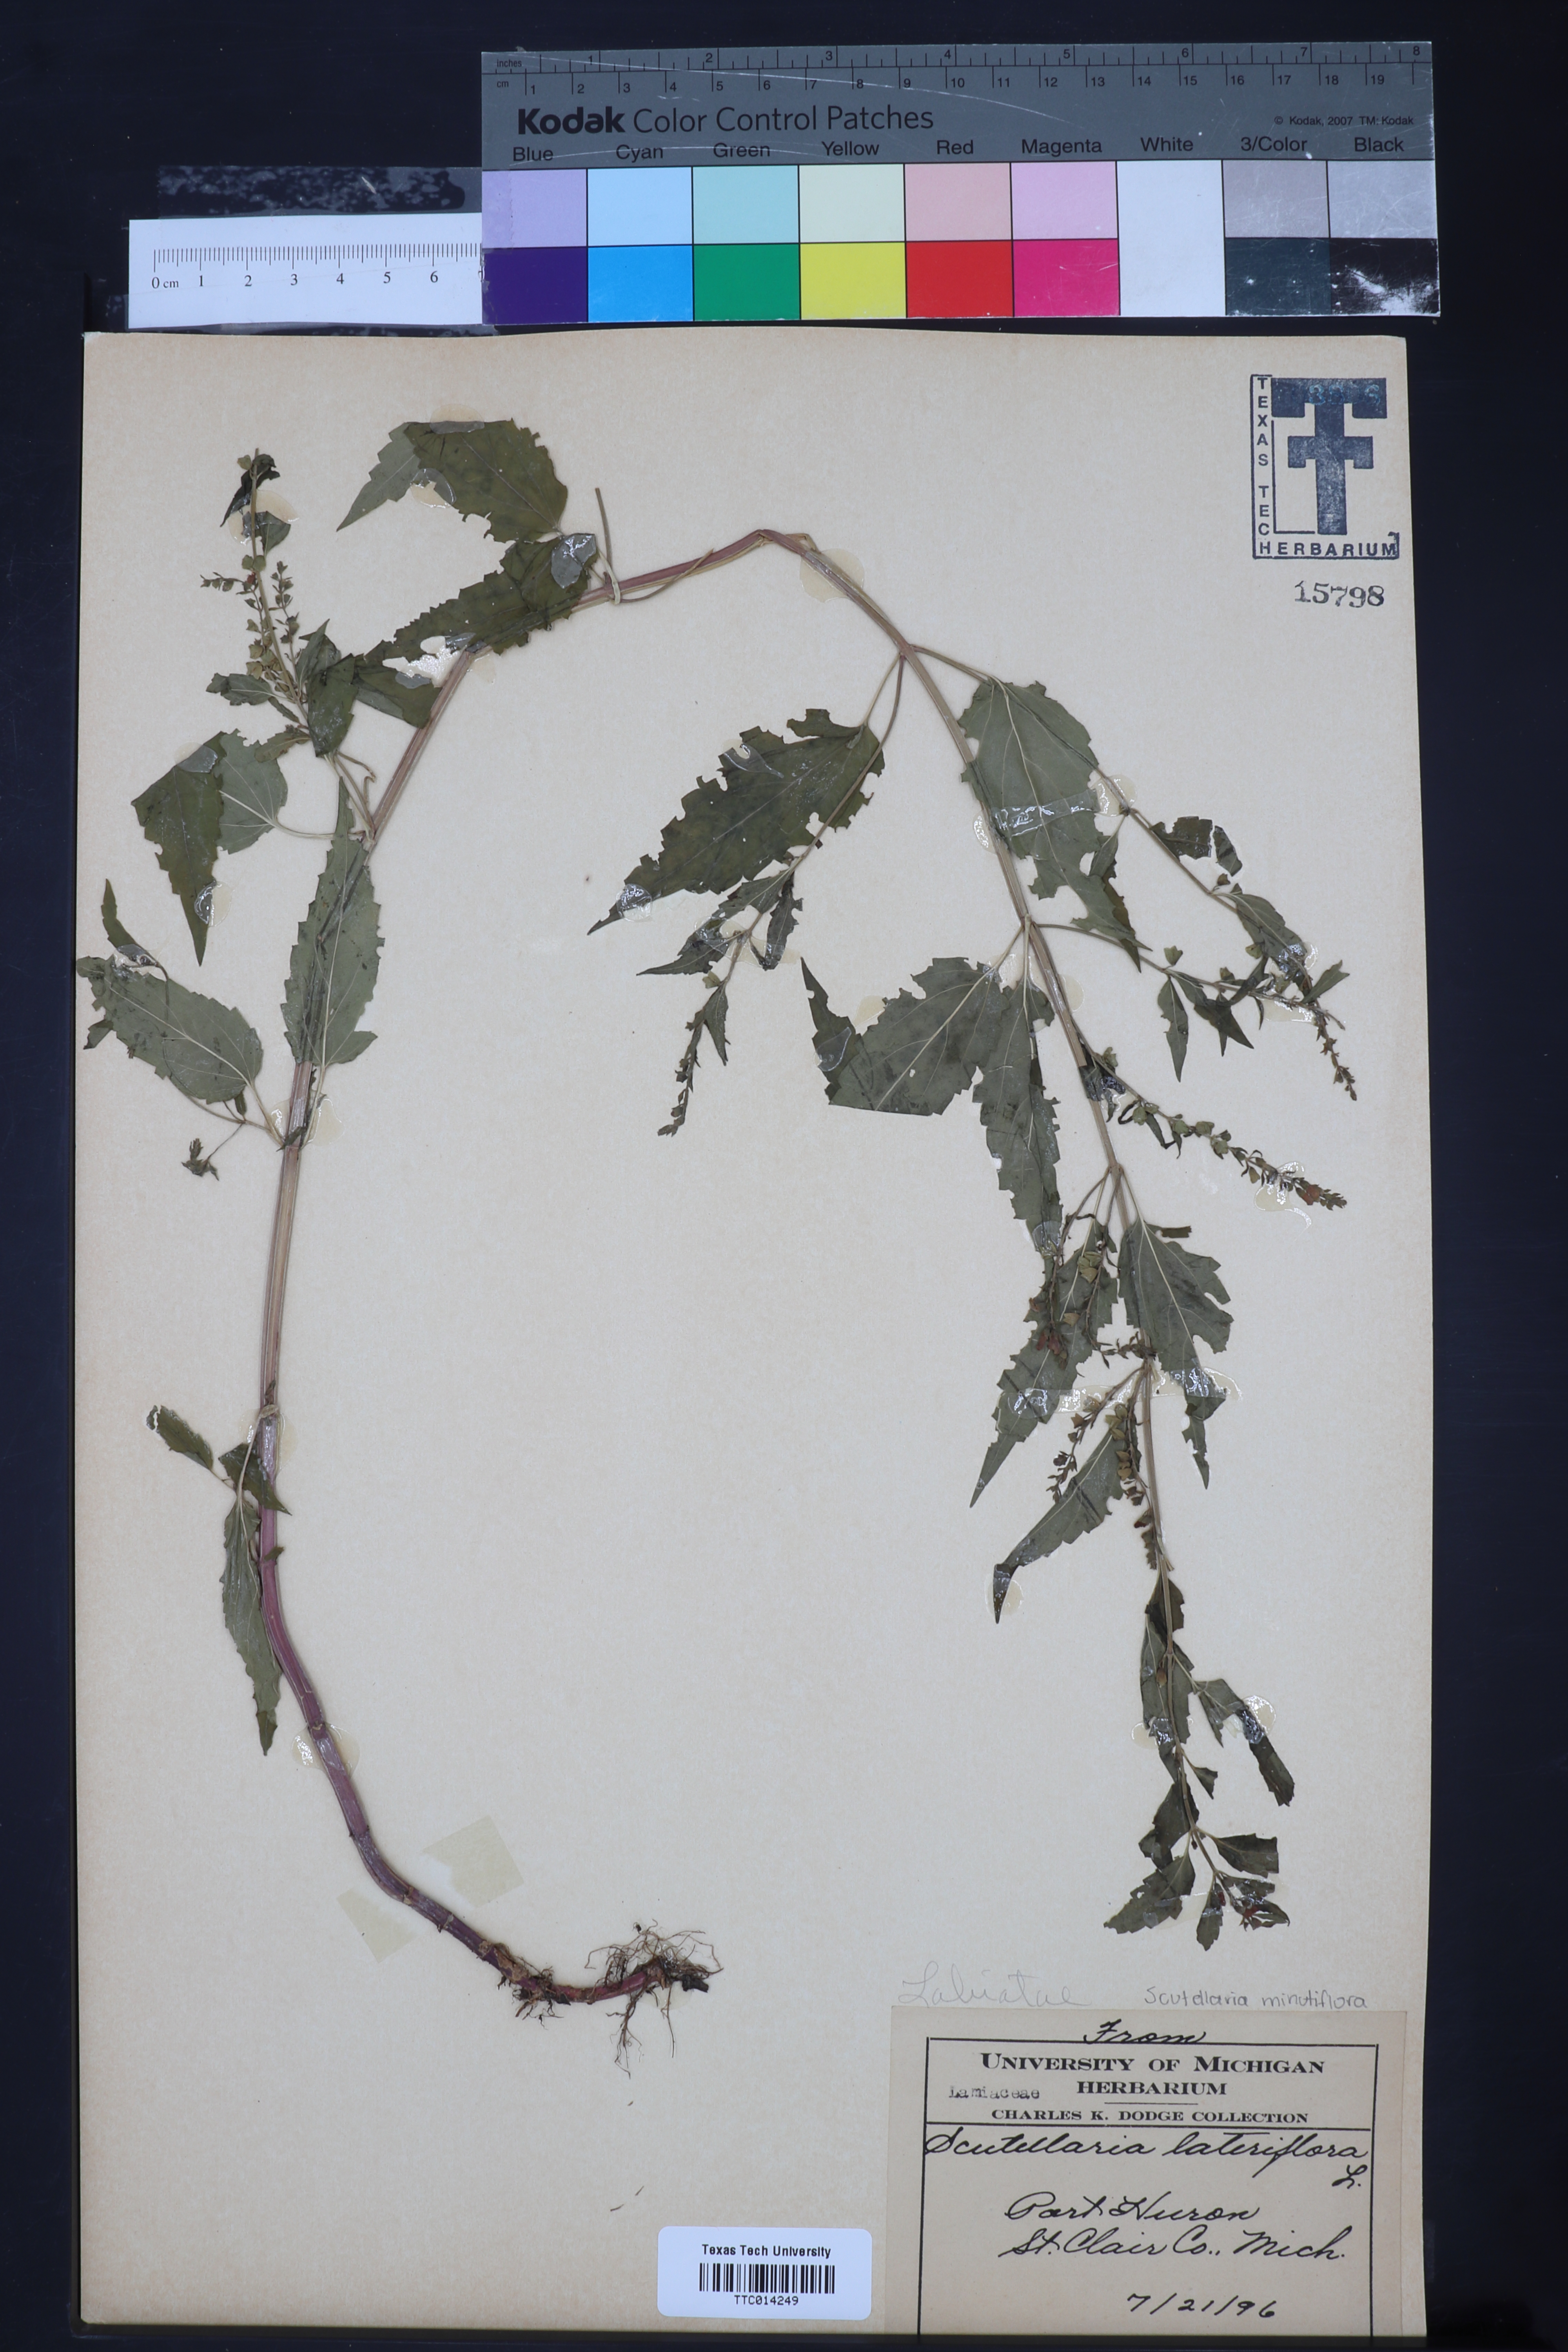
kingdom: Plantae
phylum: Tracheophyta
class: Magnoliopsida
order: Lamiales
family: Lamiaceae
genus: Scutellaria
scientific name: Scutellaria lateriflora
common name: Blue skullcap
